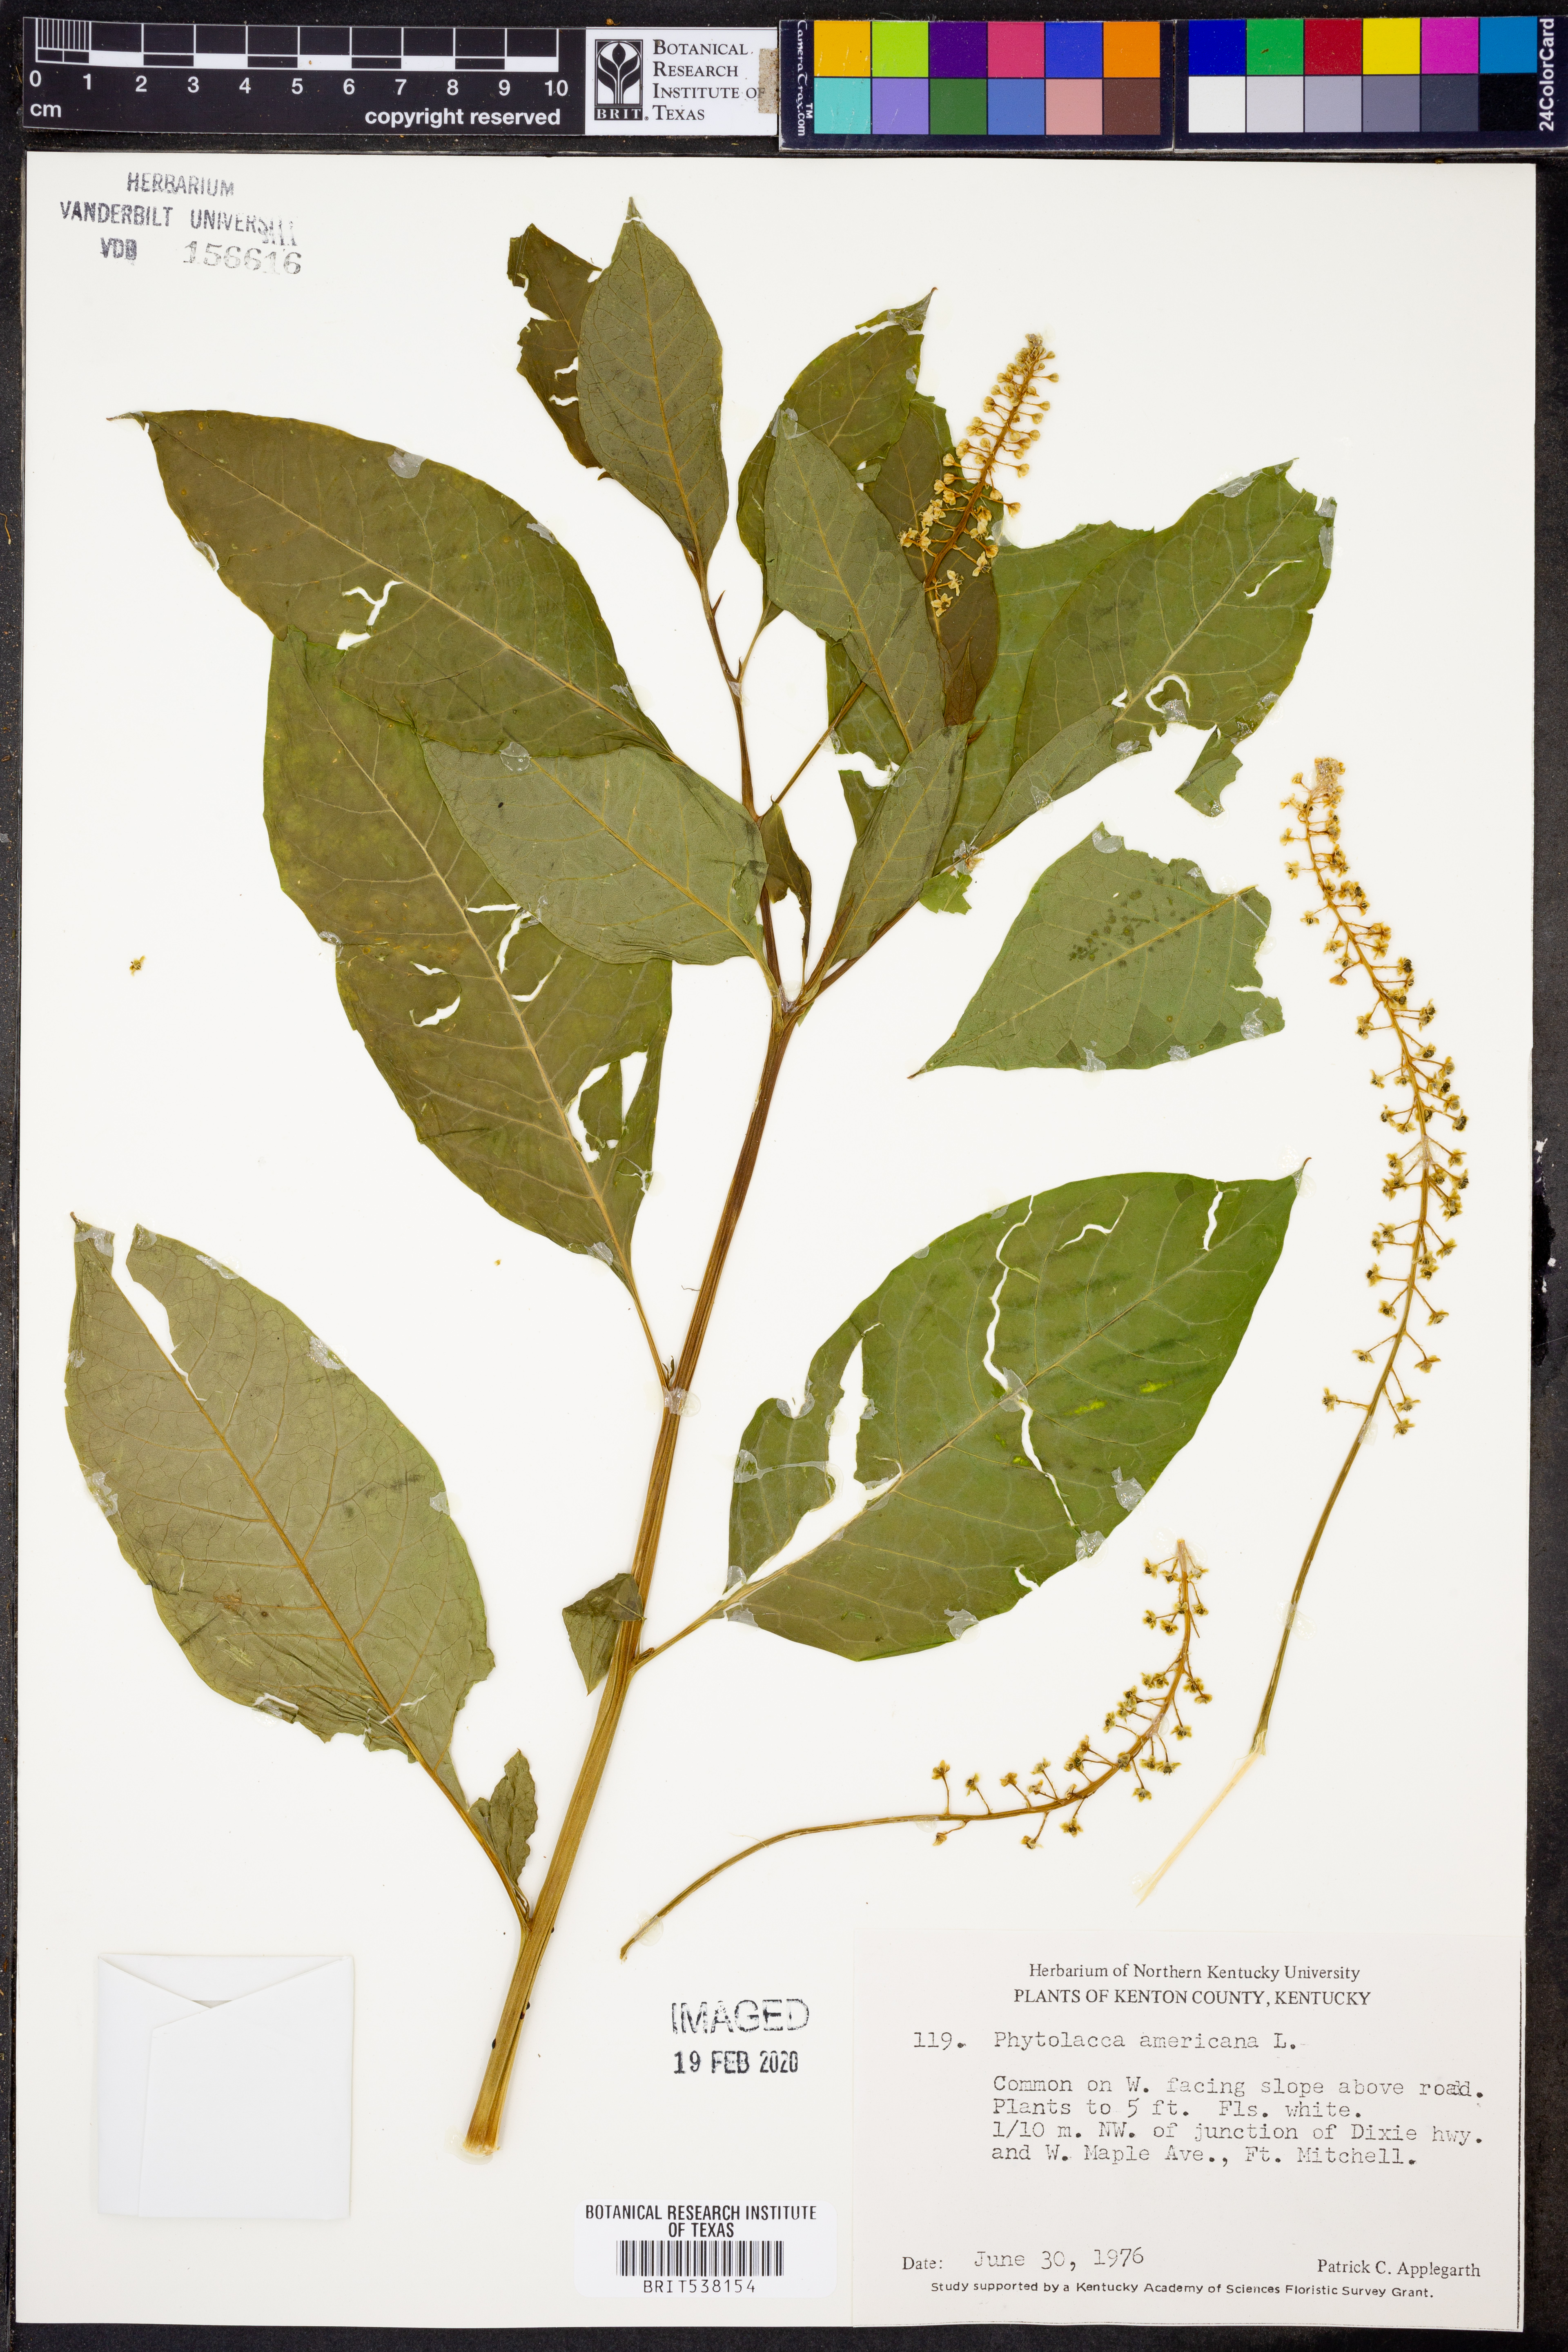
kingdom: Plantae
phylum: Tracheophyta
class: Magnoliopsida
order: Caryophyllales
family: Phytolaccaceae
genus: Phytolacca
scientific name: Phytolacca americana
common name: American pokeweed
